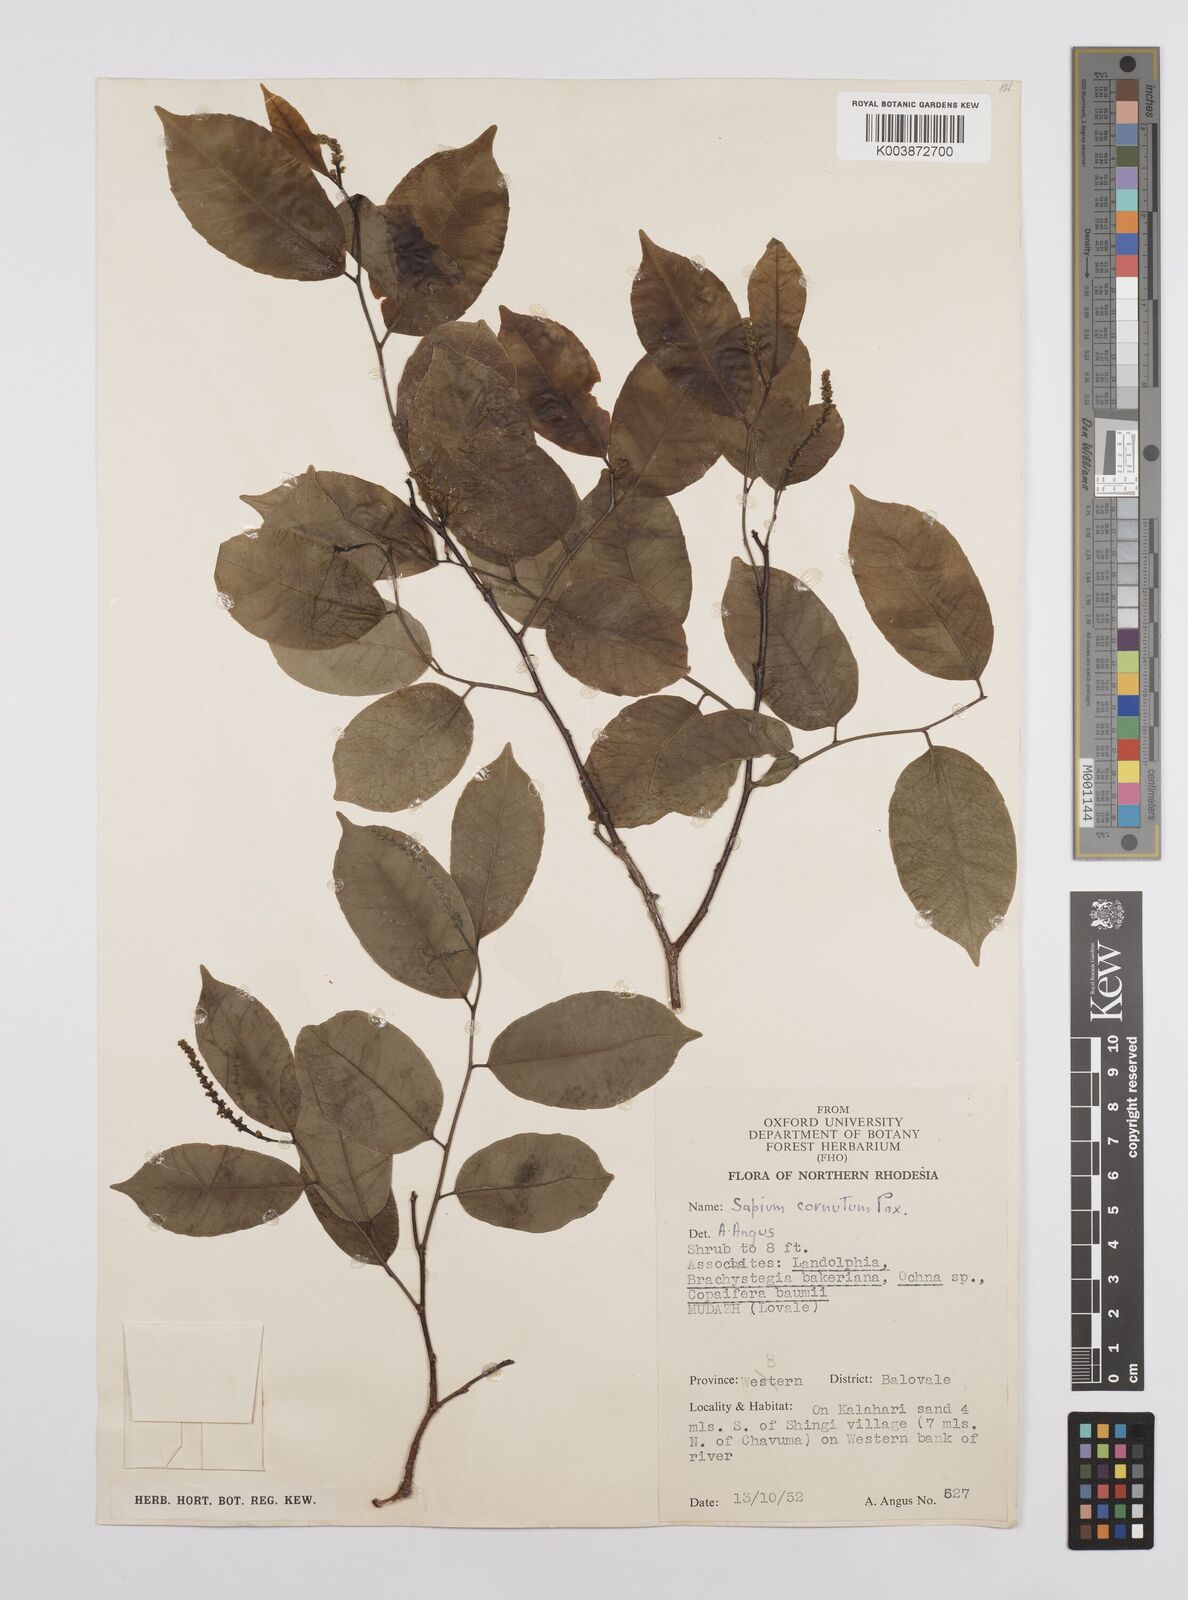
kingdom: Plantae
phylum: Tracheophyta
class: Magnoliopsida
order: Malpighiales
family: Euphorbiaceae
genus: Sclerocroton
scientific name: Sclerocroton cornutus
